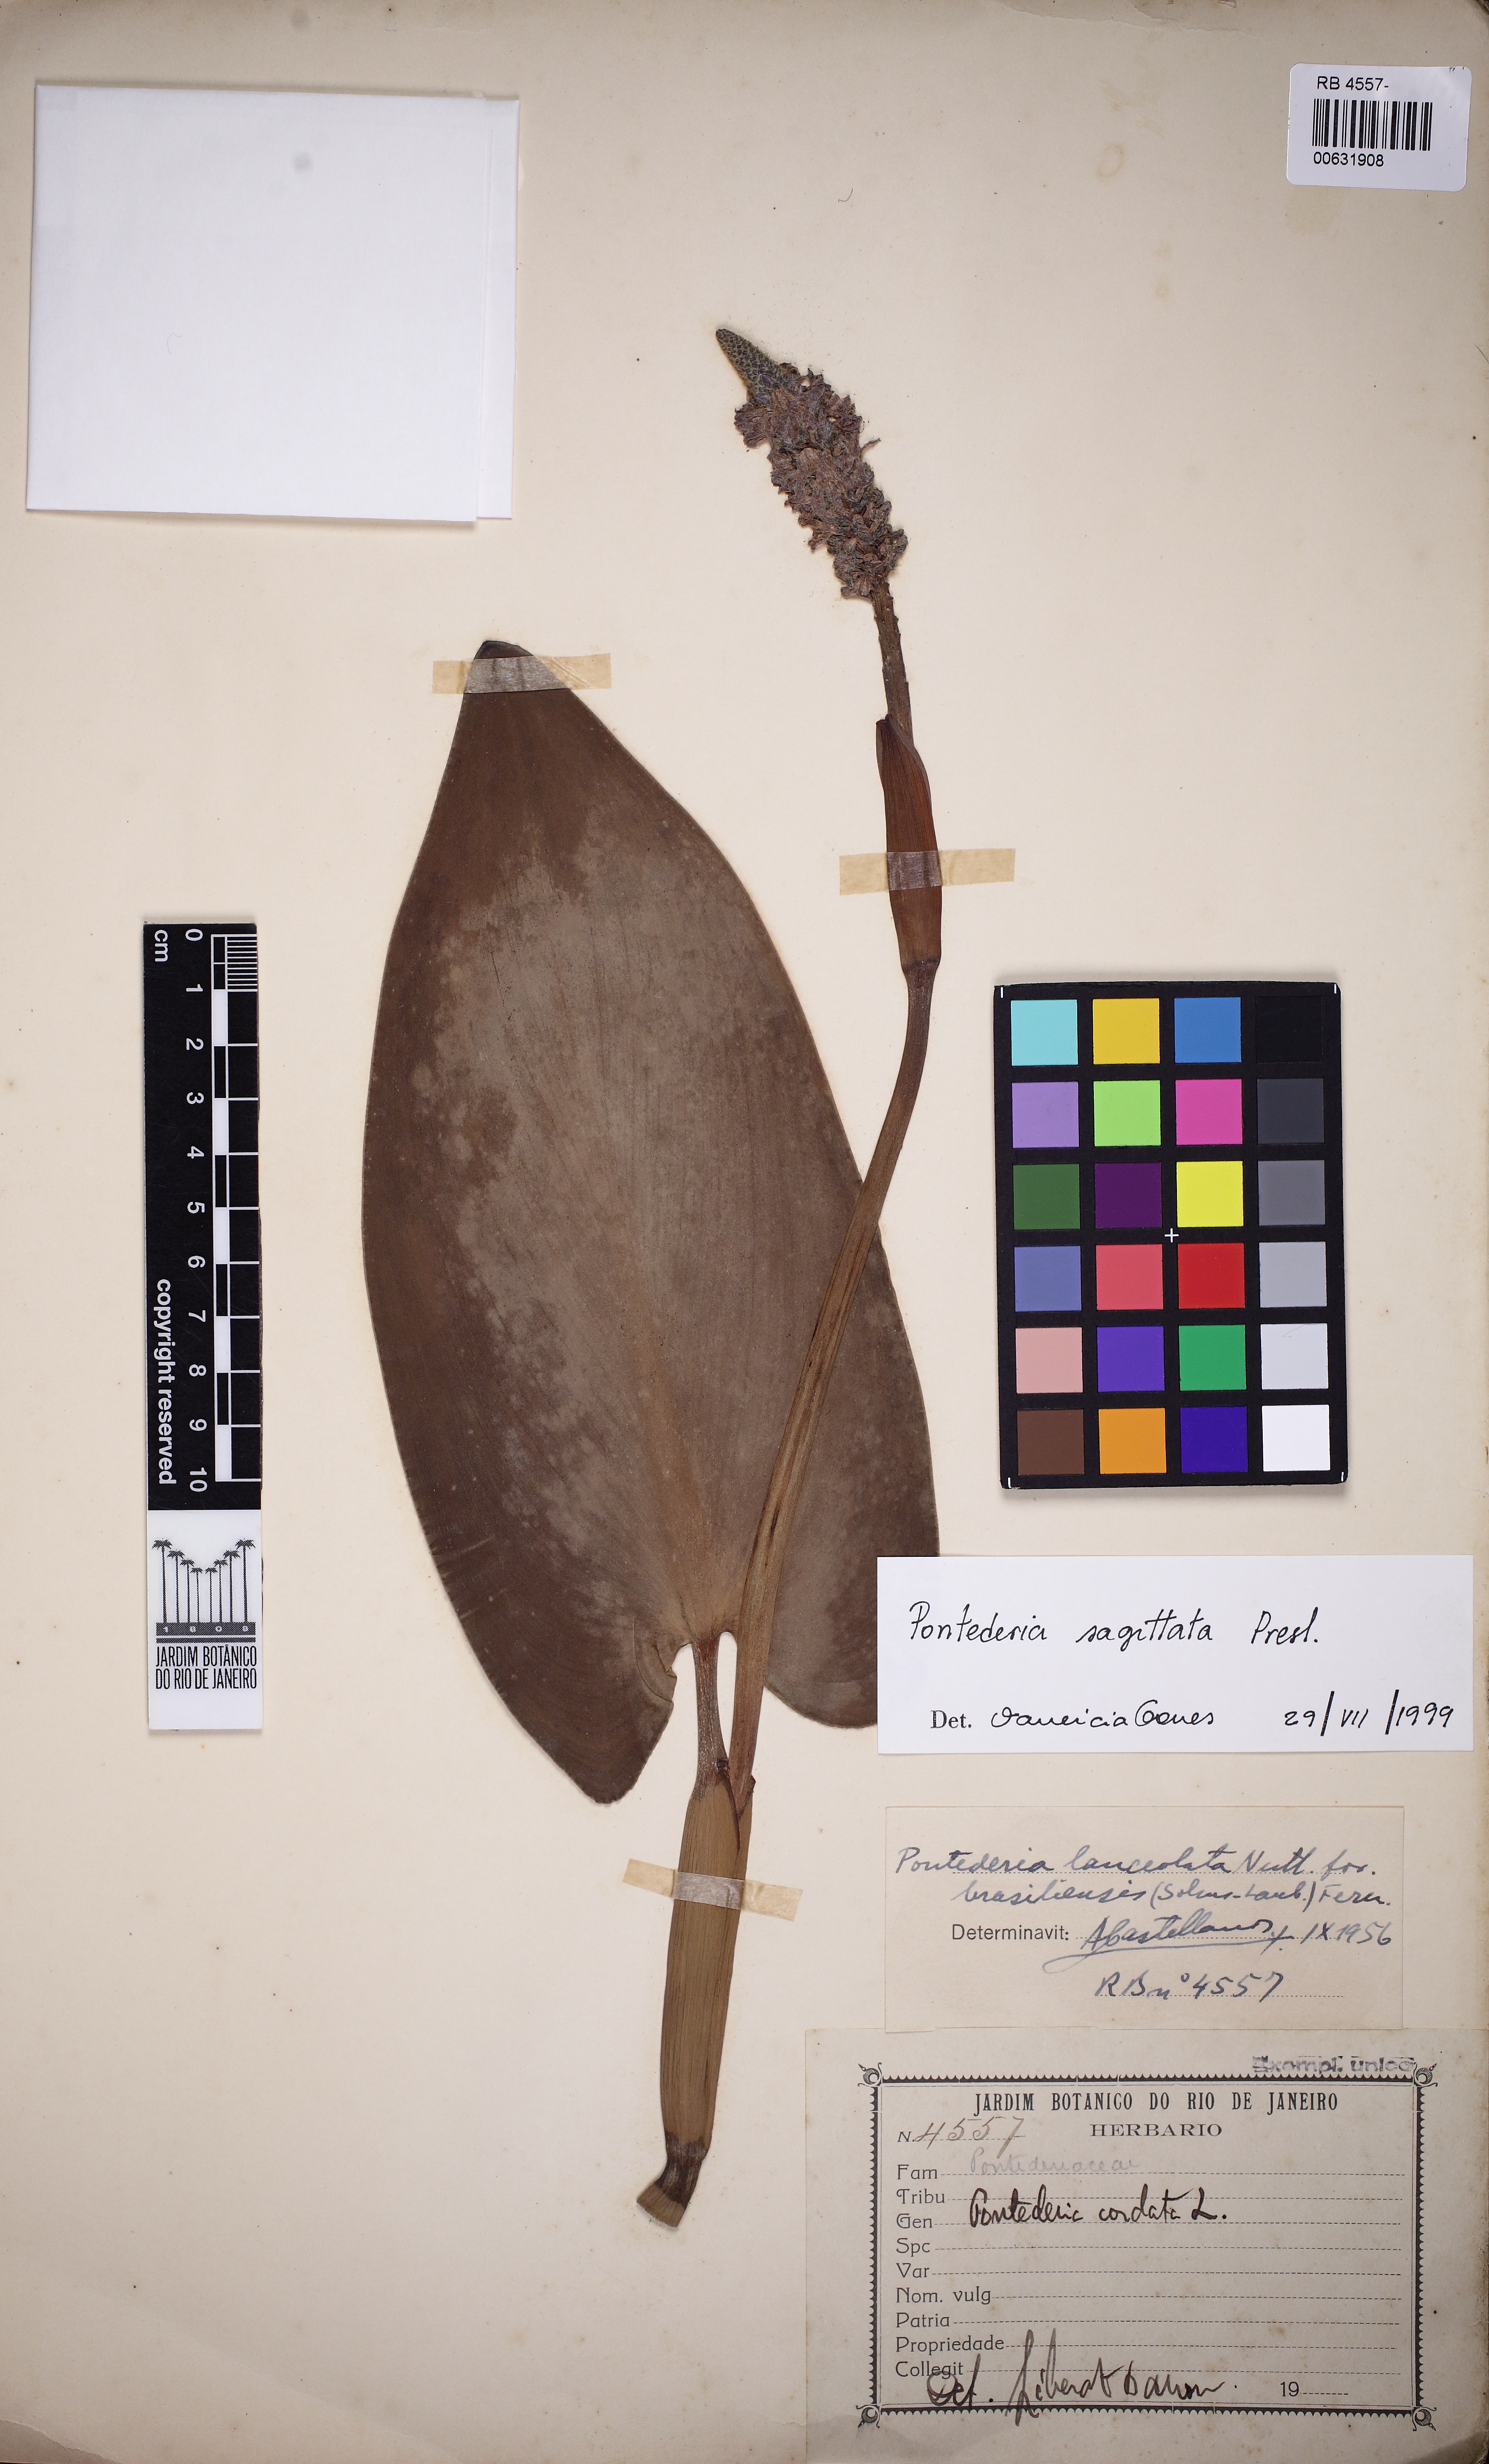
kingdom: Plantae
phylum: Tracheophyta
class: Liliopsida
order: Commelinales
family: Pontederiaceae
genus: Pontederia
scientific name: Pontederia sagittata
